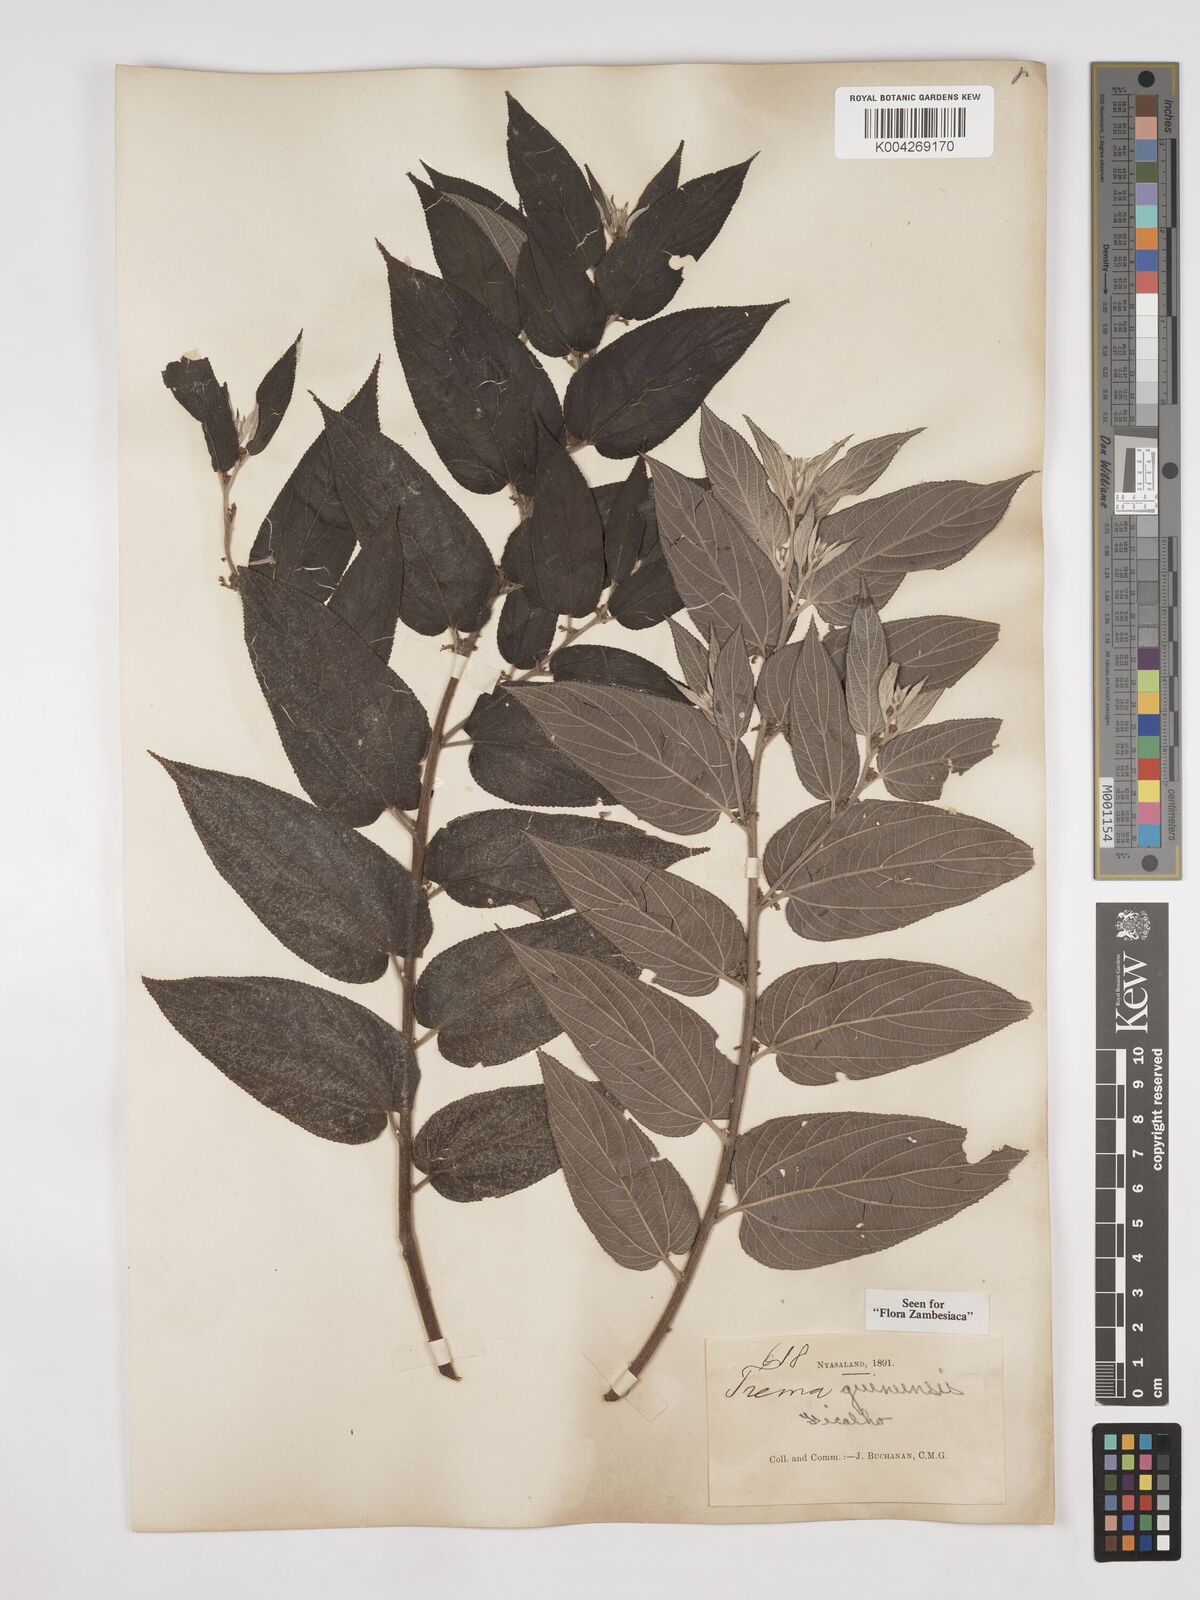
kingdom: Plantae
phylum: Tracheophyta
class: Magnoliopsida
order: Rosales
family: Cannabaceae
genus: Trema
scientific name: Trema orientale
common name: Indian charcoal tree
